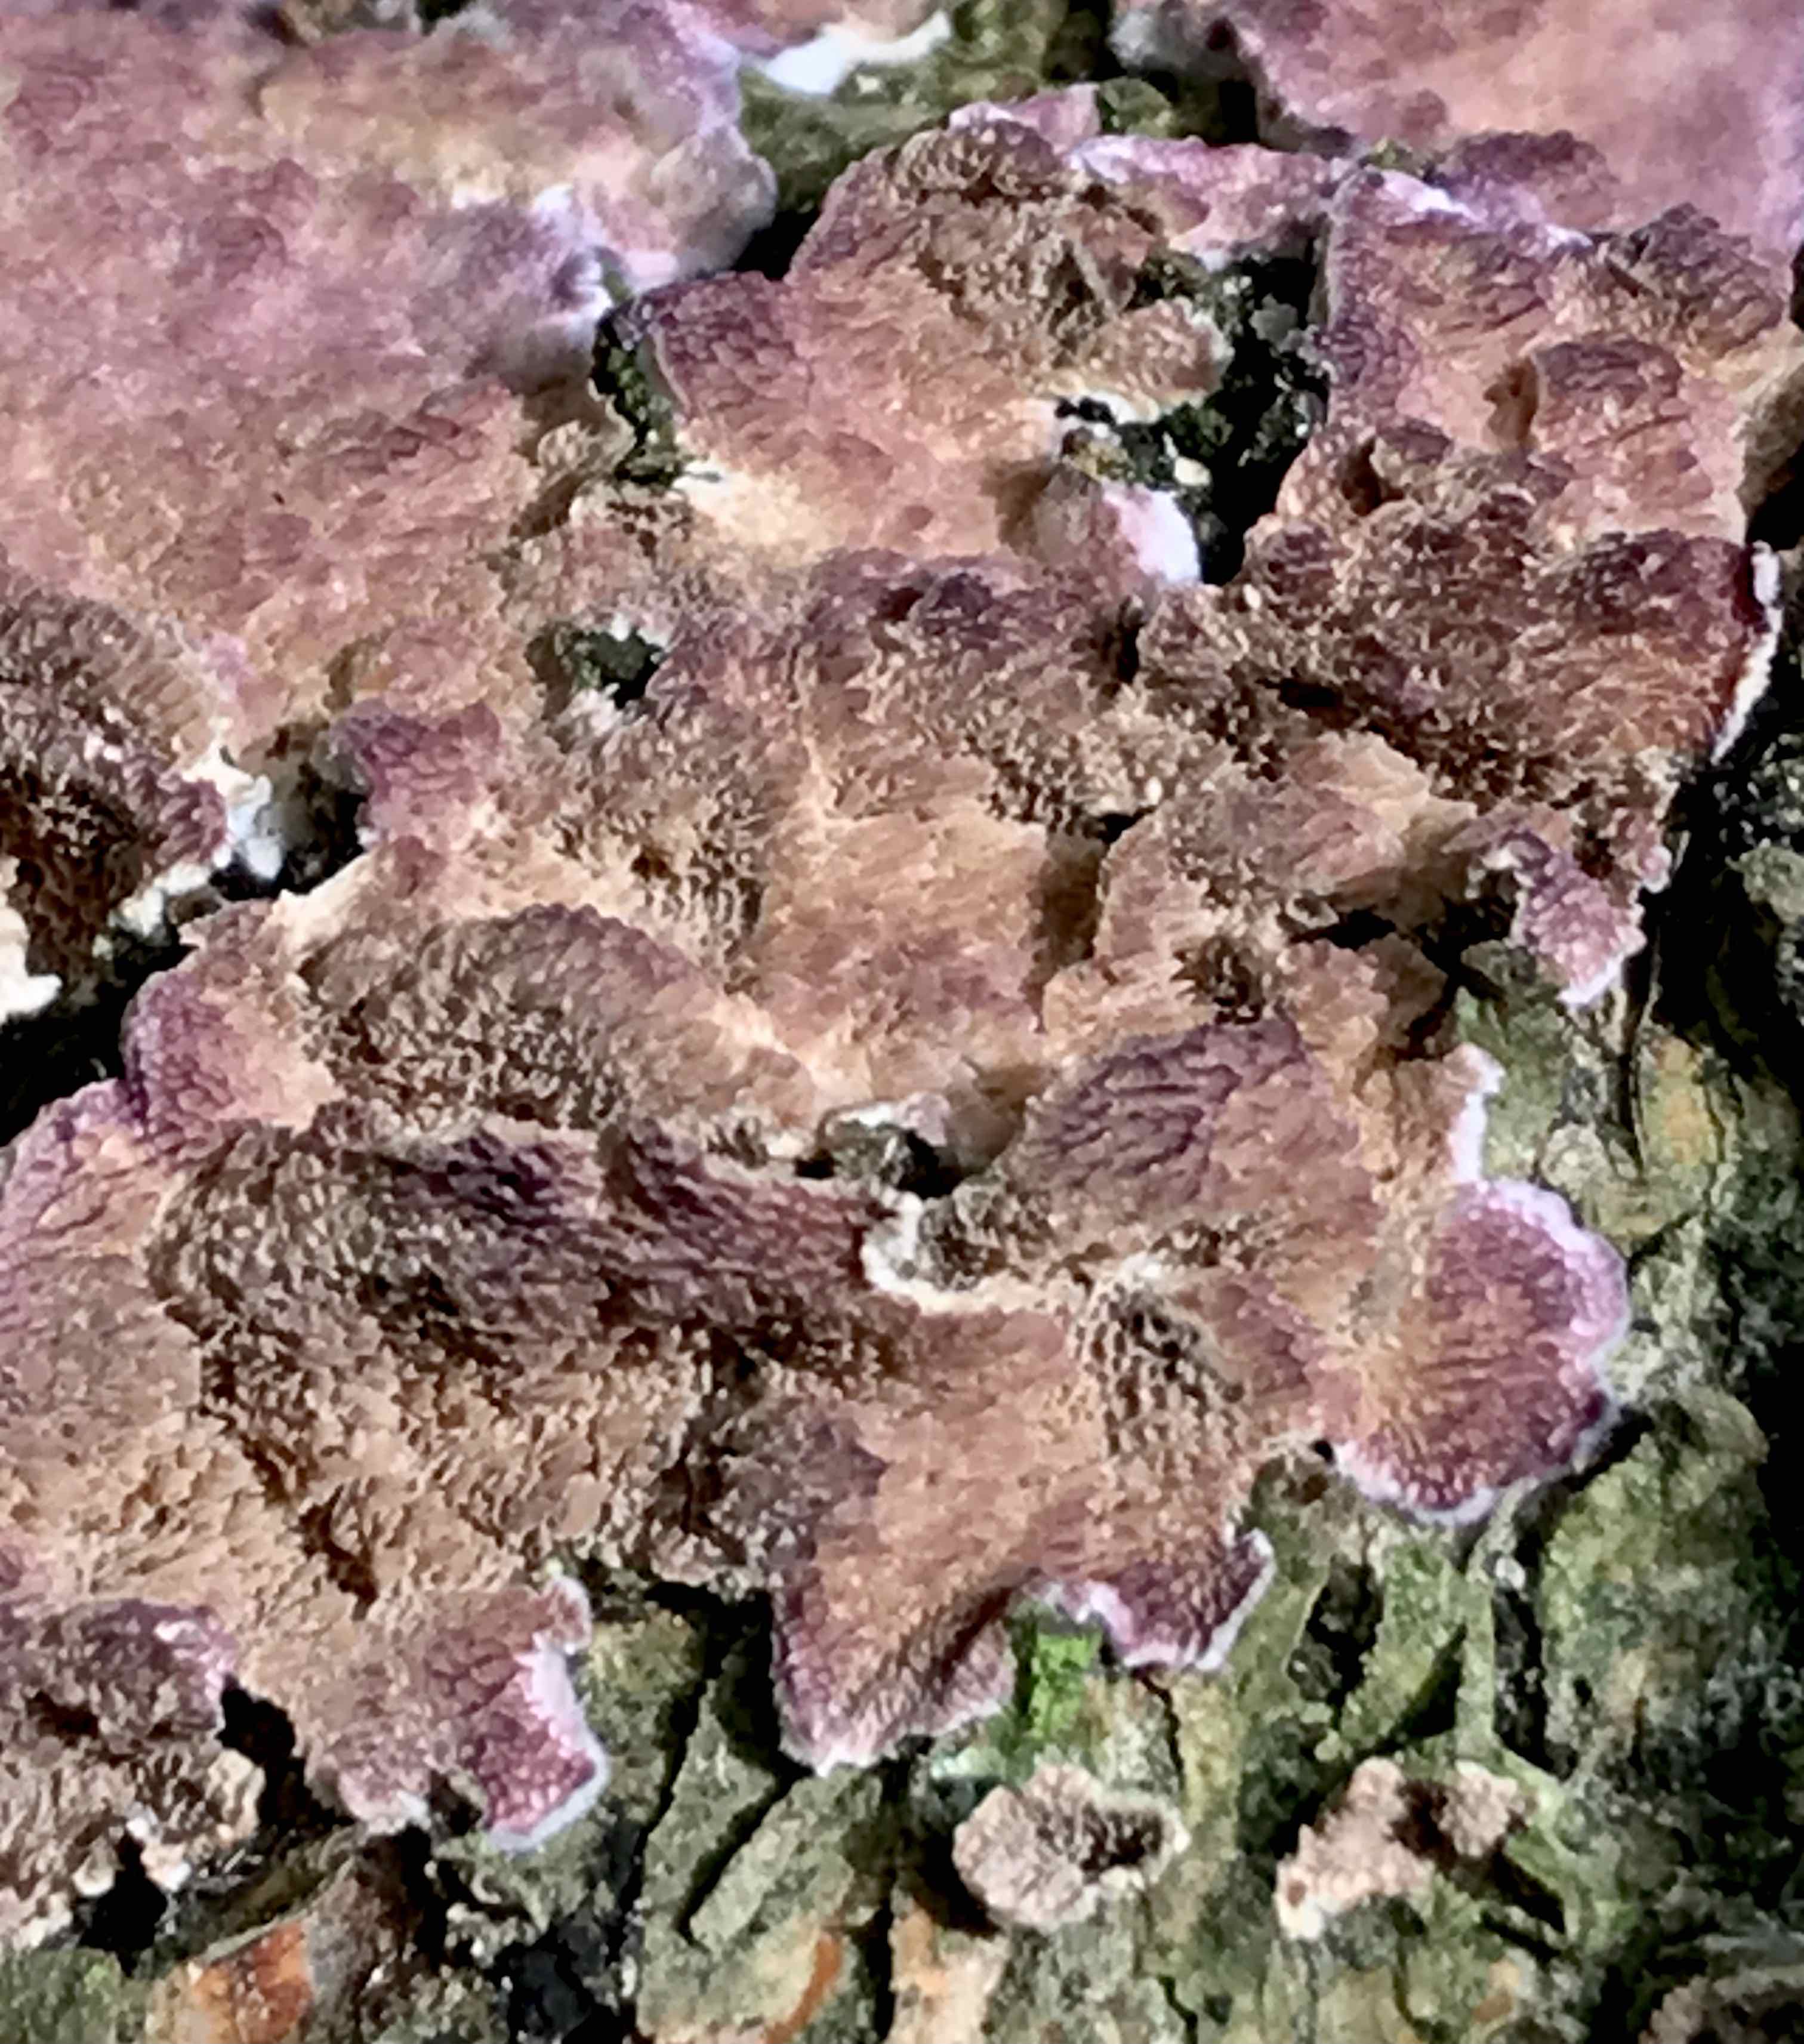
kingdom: Fungi
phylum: Basidiomycota
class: Agaricomycetes
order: Hymenochaetales
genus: Trichaptum
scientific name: Trichaptum abietinum
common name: almindelig violporesvamp
